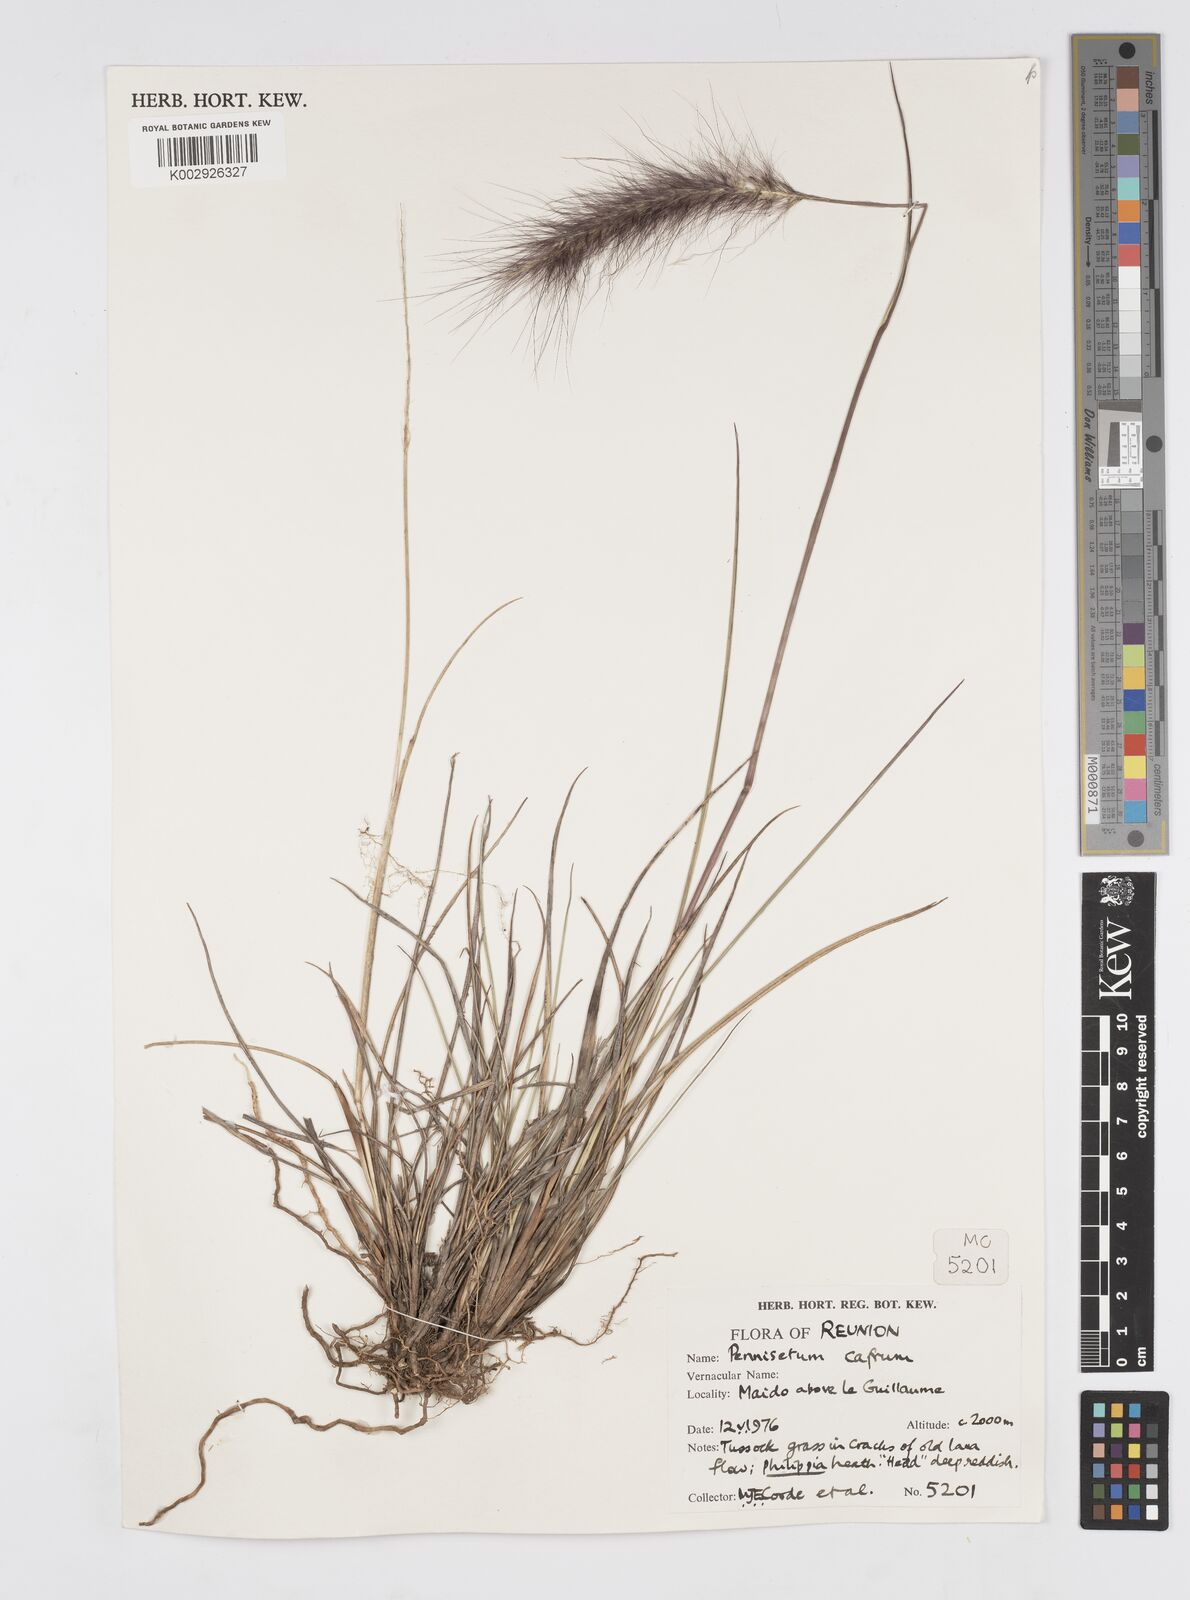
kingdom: Plantae
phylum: Tracheophyta
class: Liliopsida
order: Poales
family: Poaceae
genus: Cenchrus
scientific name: Cenchrus cafer
